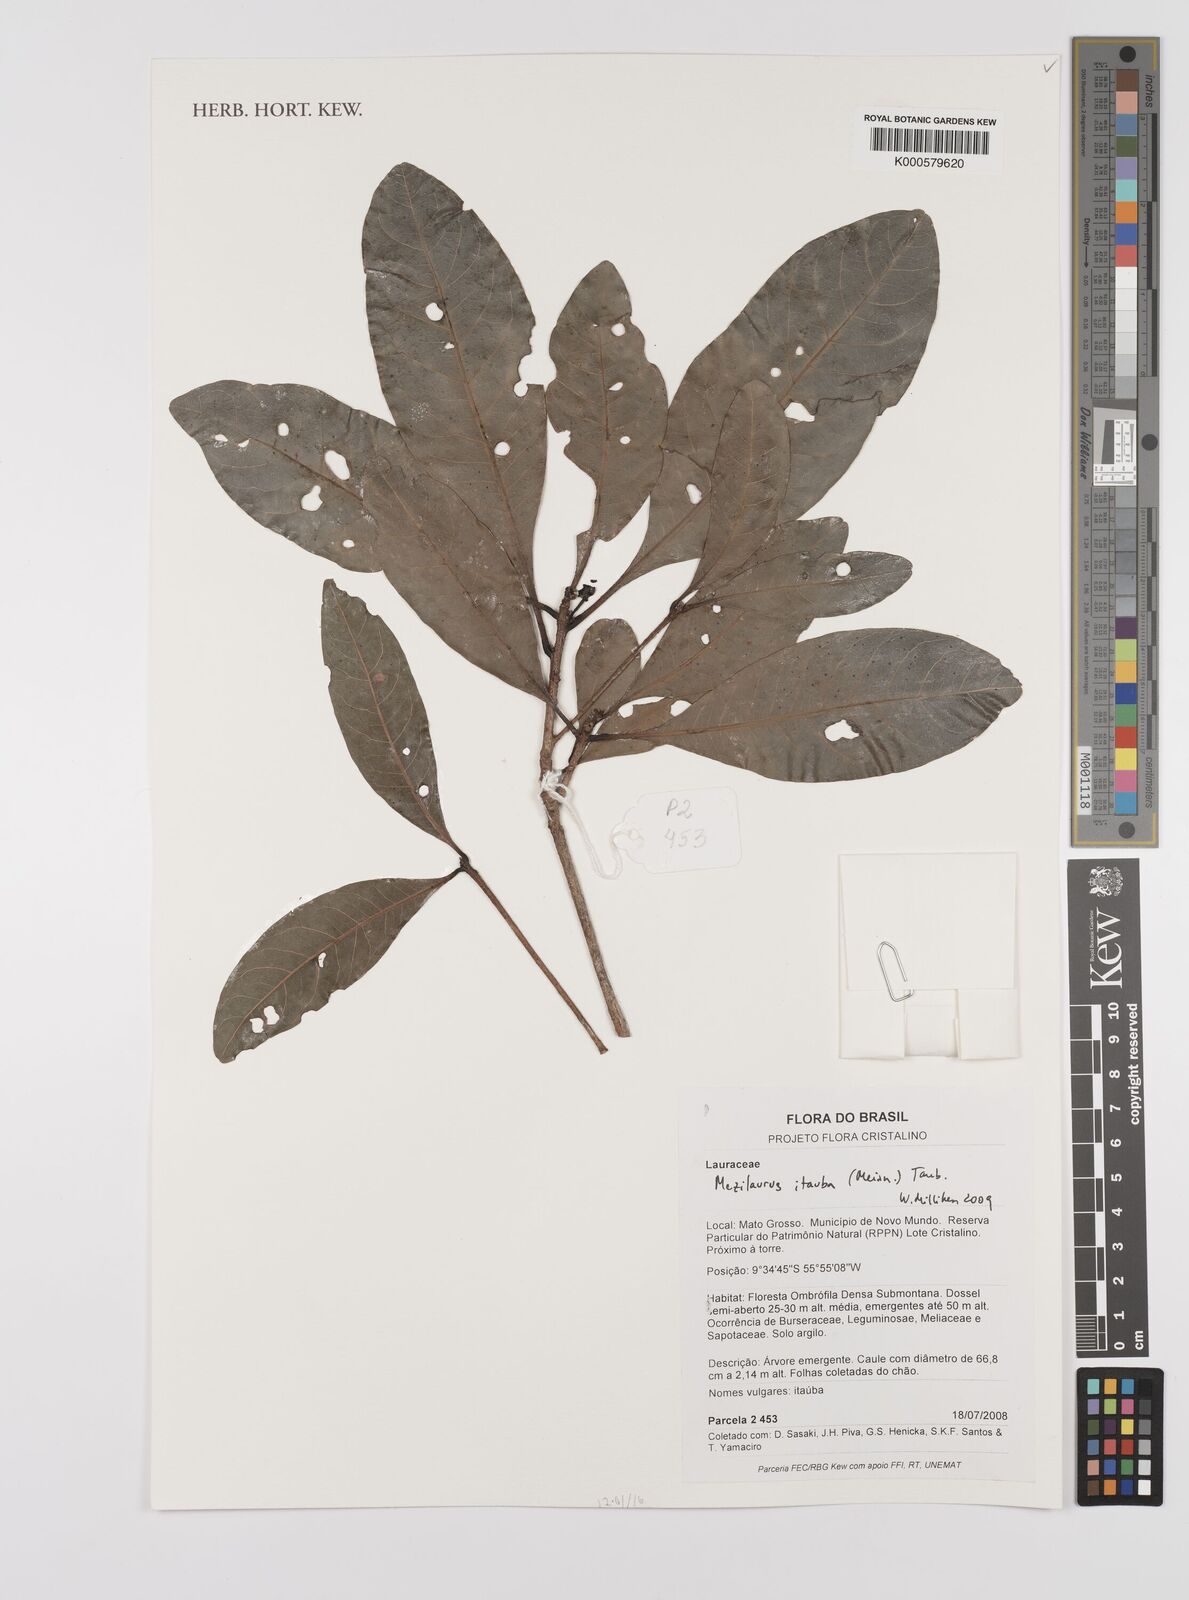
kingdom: Plantae
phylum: Tracheophyta
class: Magnoliopsida
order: Laurales
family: Lauraceae
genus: Mezilaurus
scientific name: Mezilaurus
